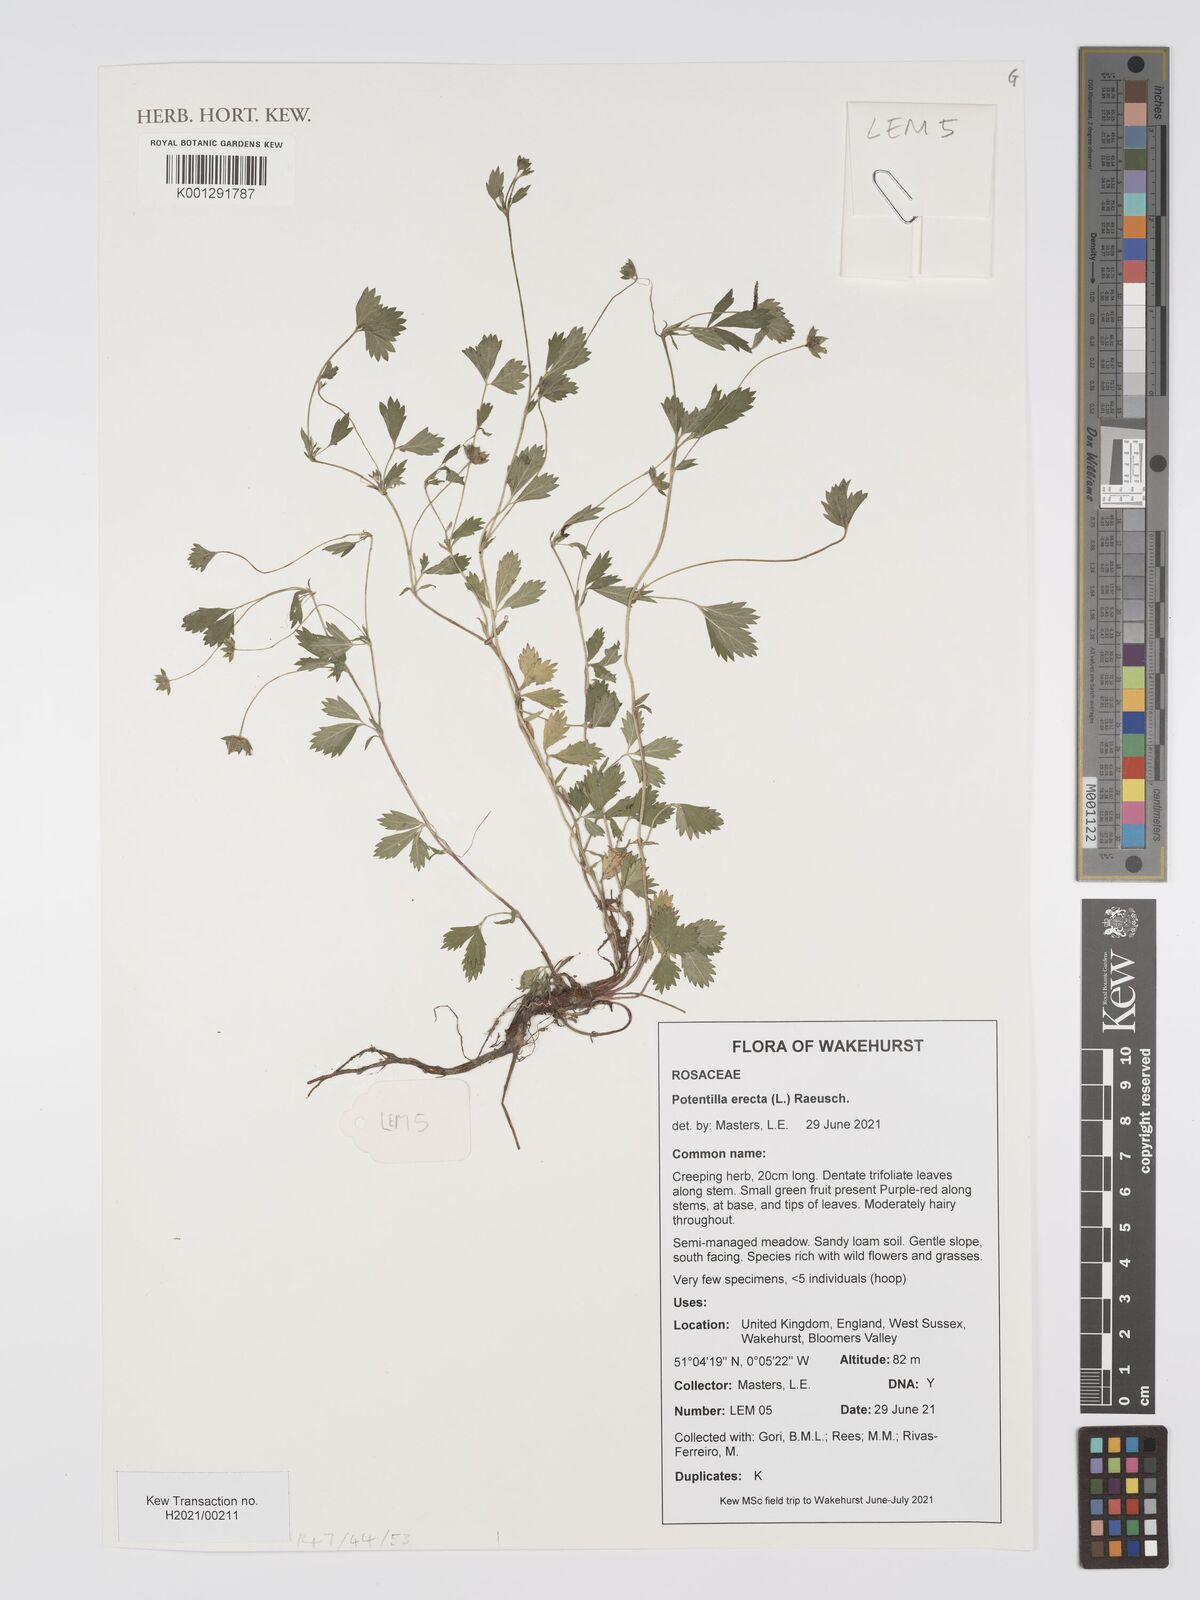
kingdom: Plantae
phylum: Tracheophyta
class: Magnoliopsida
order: Rosales
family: Rosaceae
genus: Potentilla
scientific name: Potentilla erecta
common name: Tormentil
